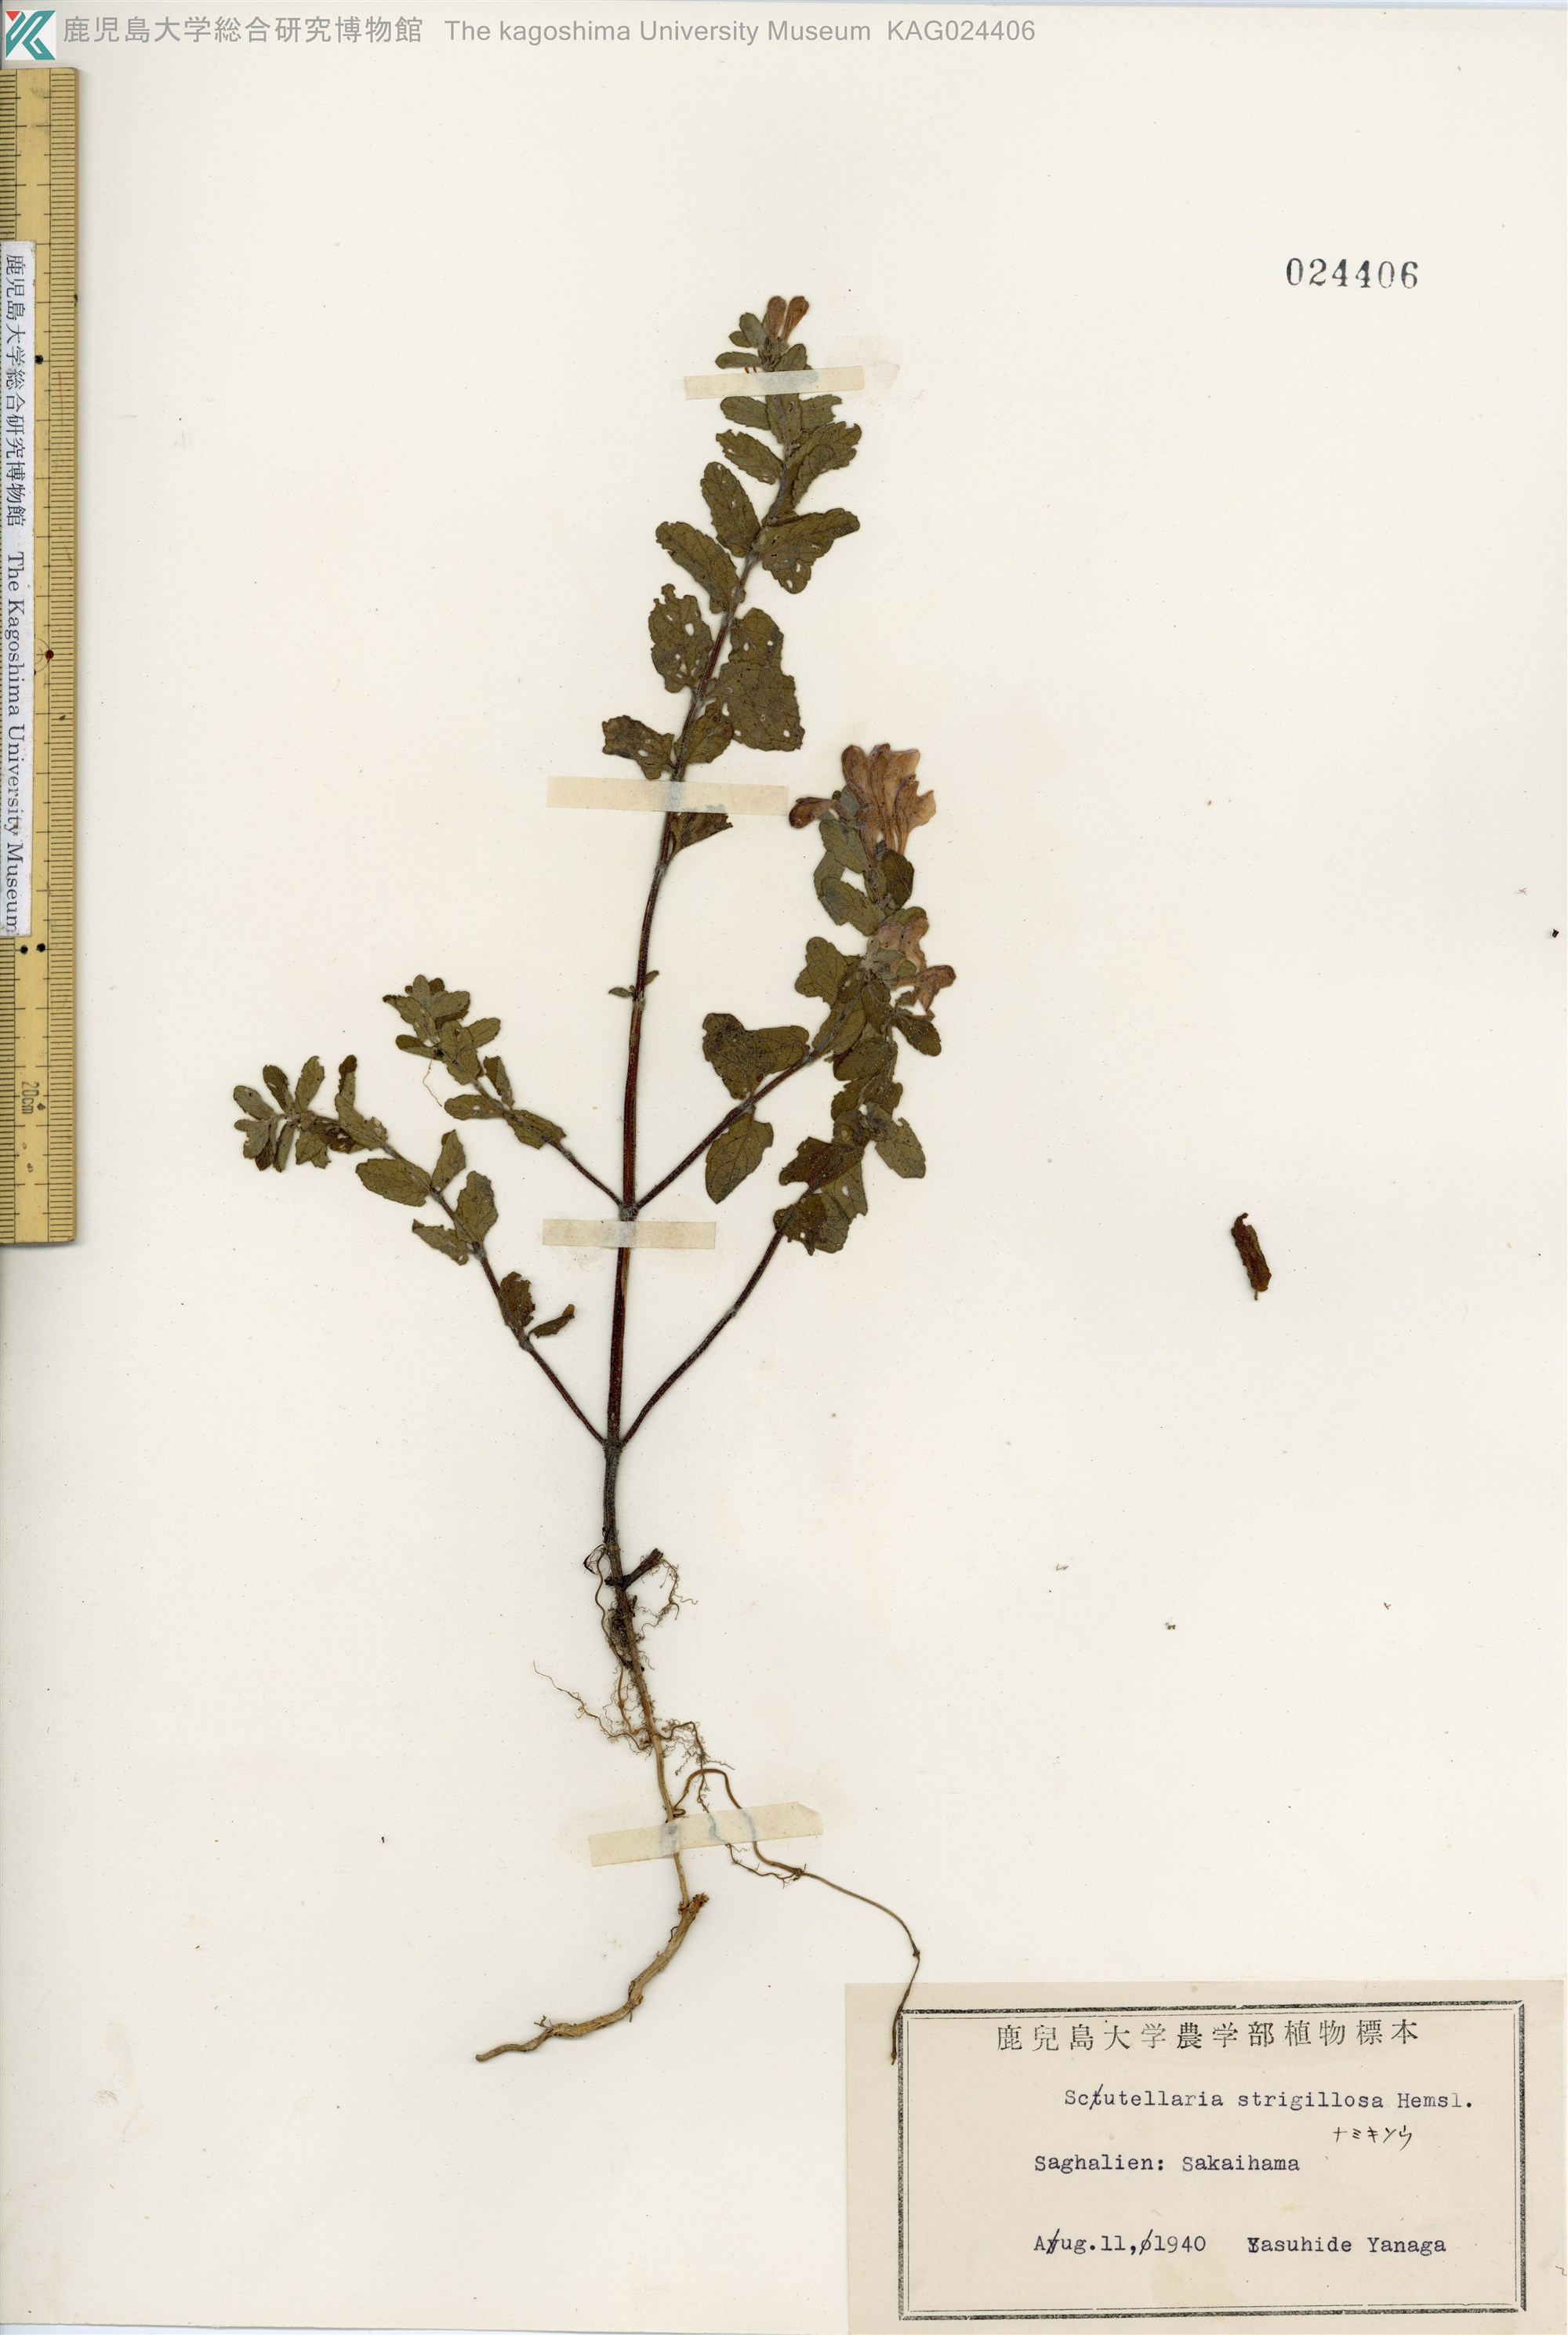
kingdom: Plantae
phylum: Tracheophyta
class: Magnoliopsida
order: Lamiales
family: Lamiaceae
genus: Scutellaria
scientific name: Scutellaria strigillosa
